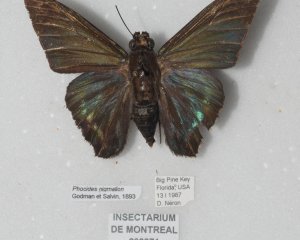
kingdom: Animalia
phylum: Arthropoda
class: Insecta
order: Lepidoptera
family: Hesperiidae
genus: Phocides
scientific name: Phocides pigmalion
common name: Mangrove Skipper
